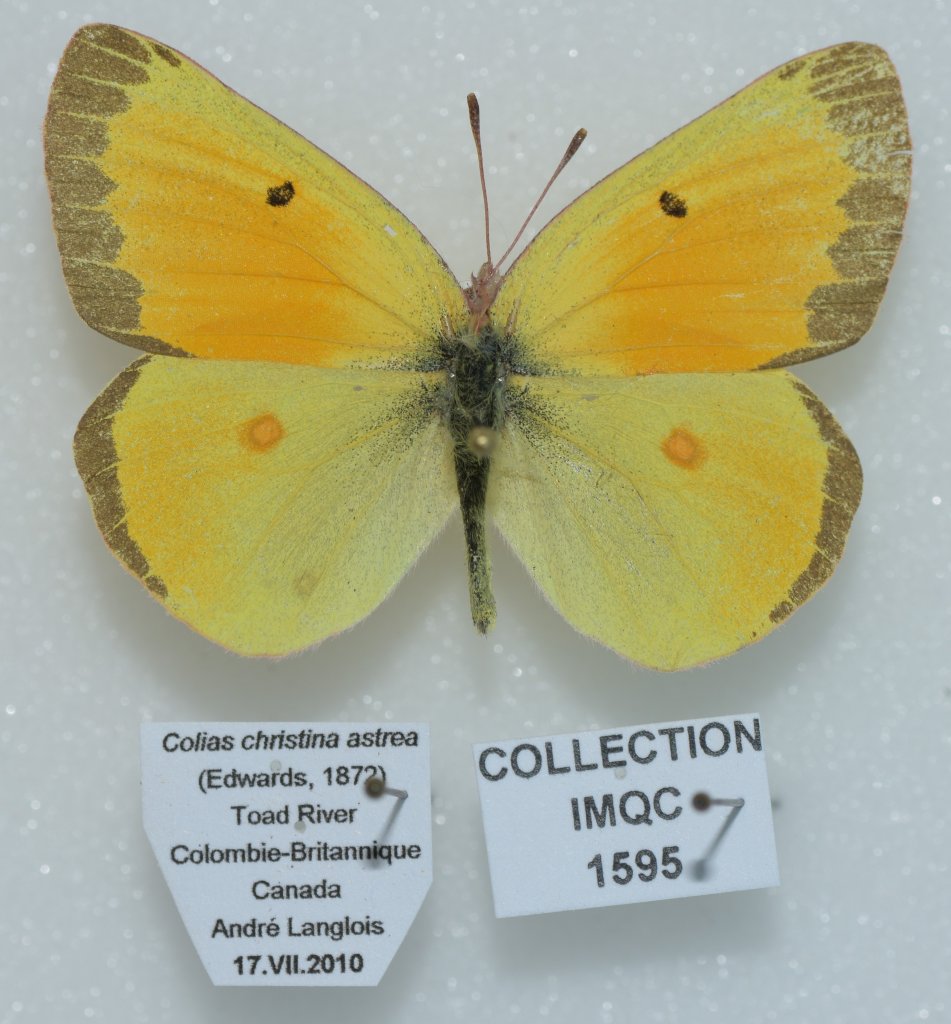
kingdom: Animalia
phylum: Arthropoda
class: Insecta
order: Lepidoptera
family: Pieridae
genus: Colias
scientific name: Colias christina
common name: Christina Sulphur
